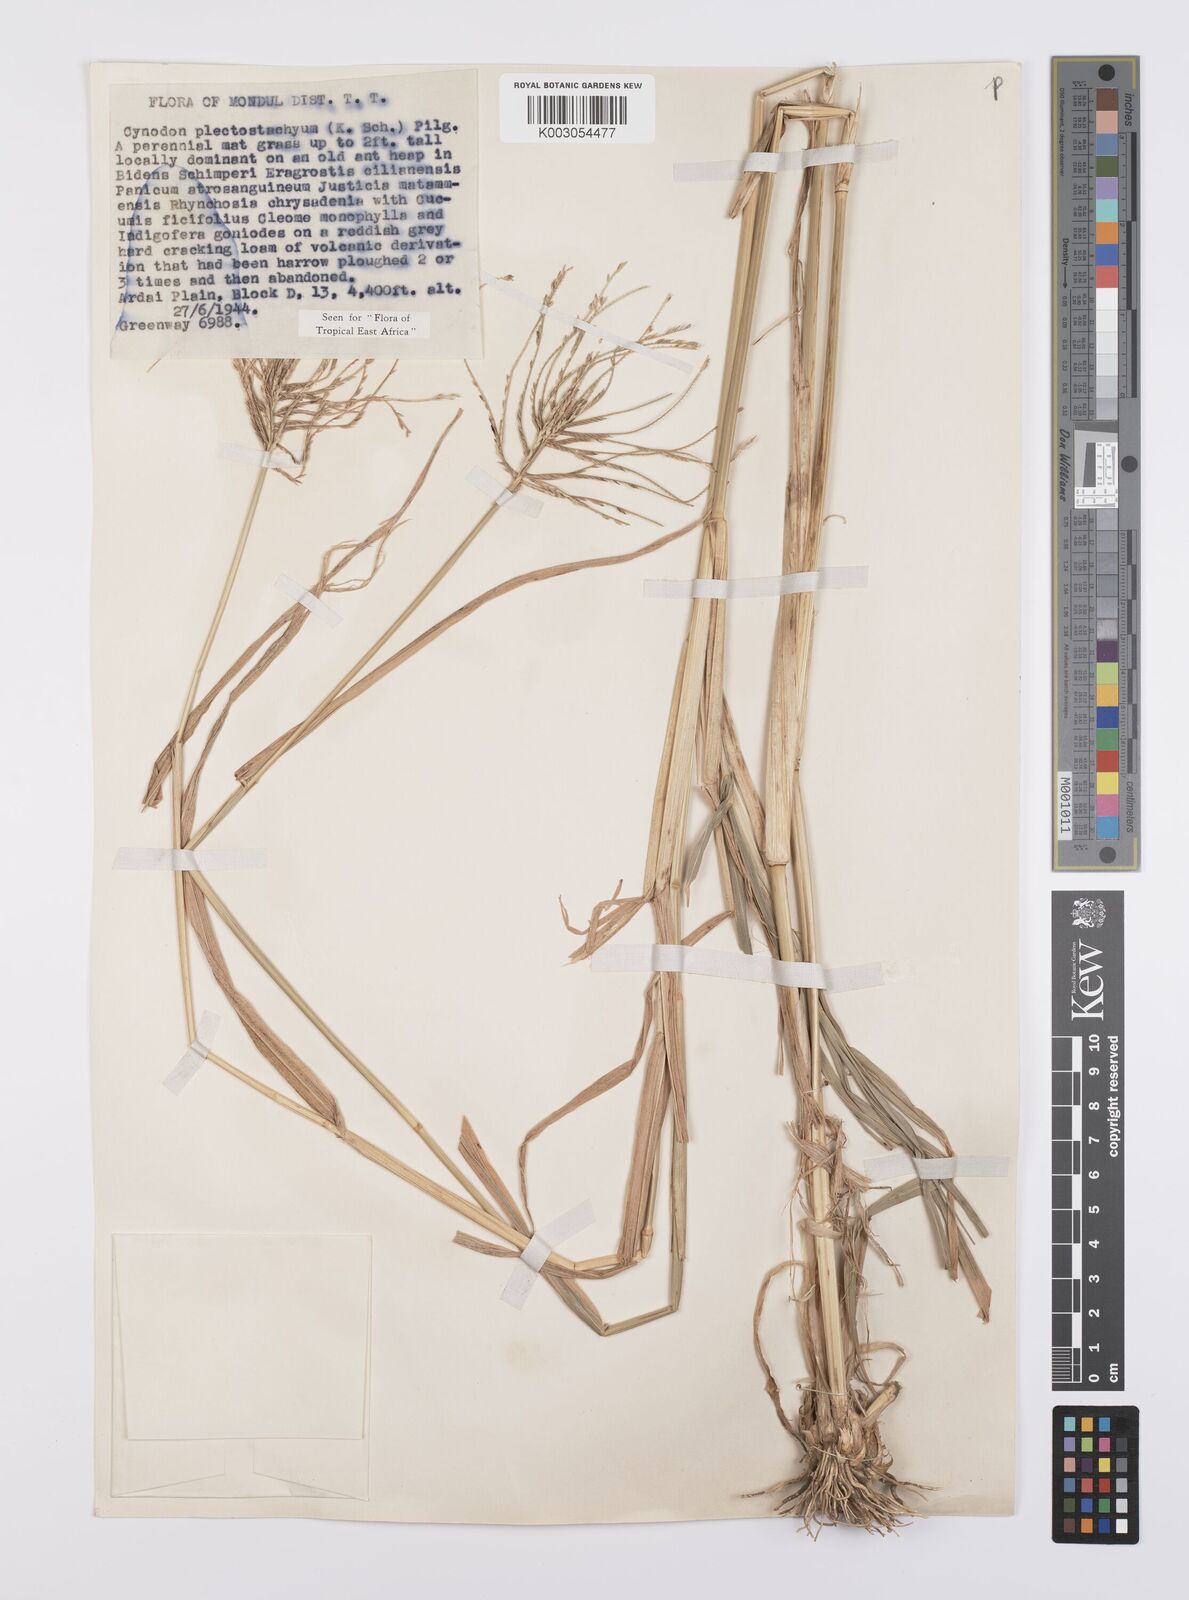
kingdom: Plantae
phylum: Tracheophyta
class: Liliopsida
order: Poales
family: Poaceae
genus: Cynodon
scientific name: Cynodon plectostachyus
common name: Stargrass
